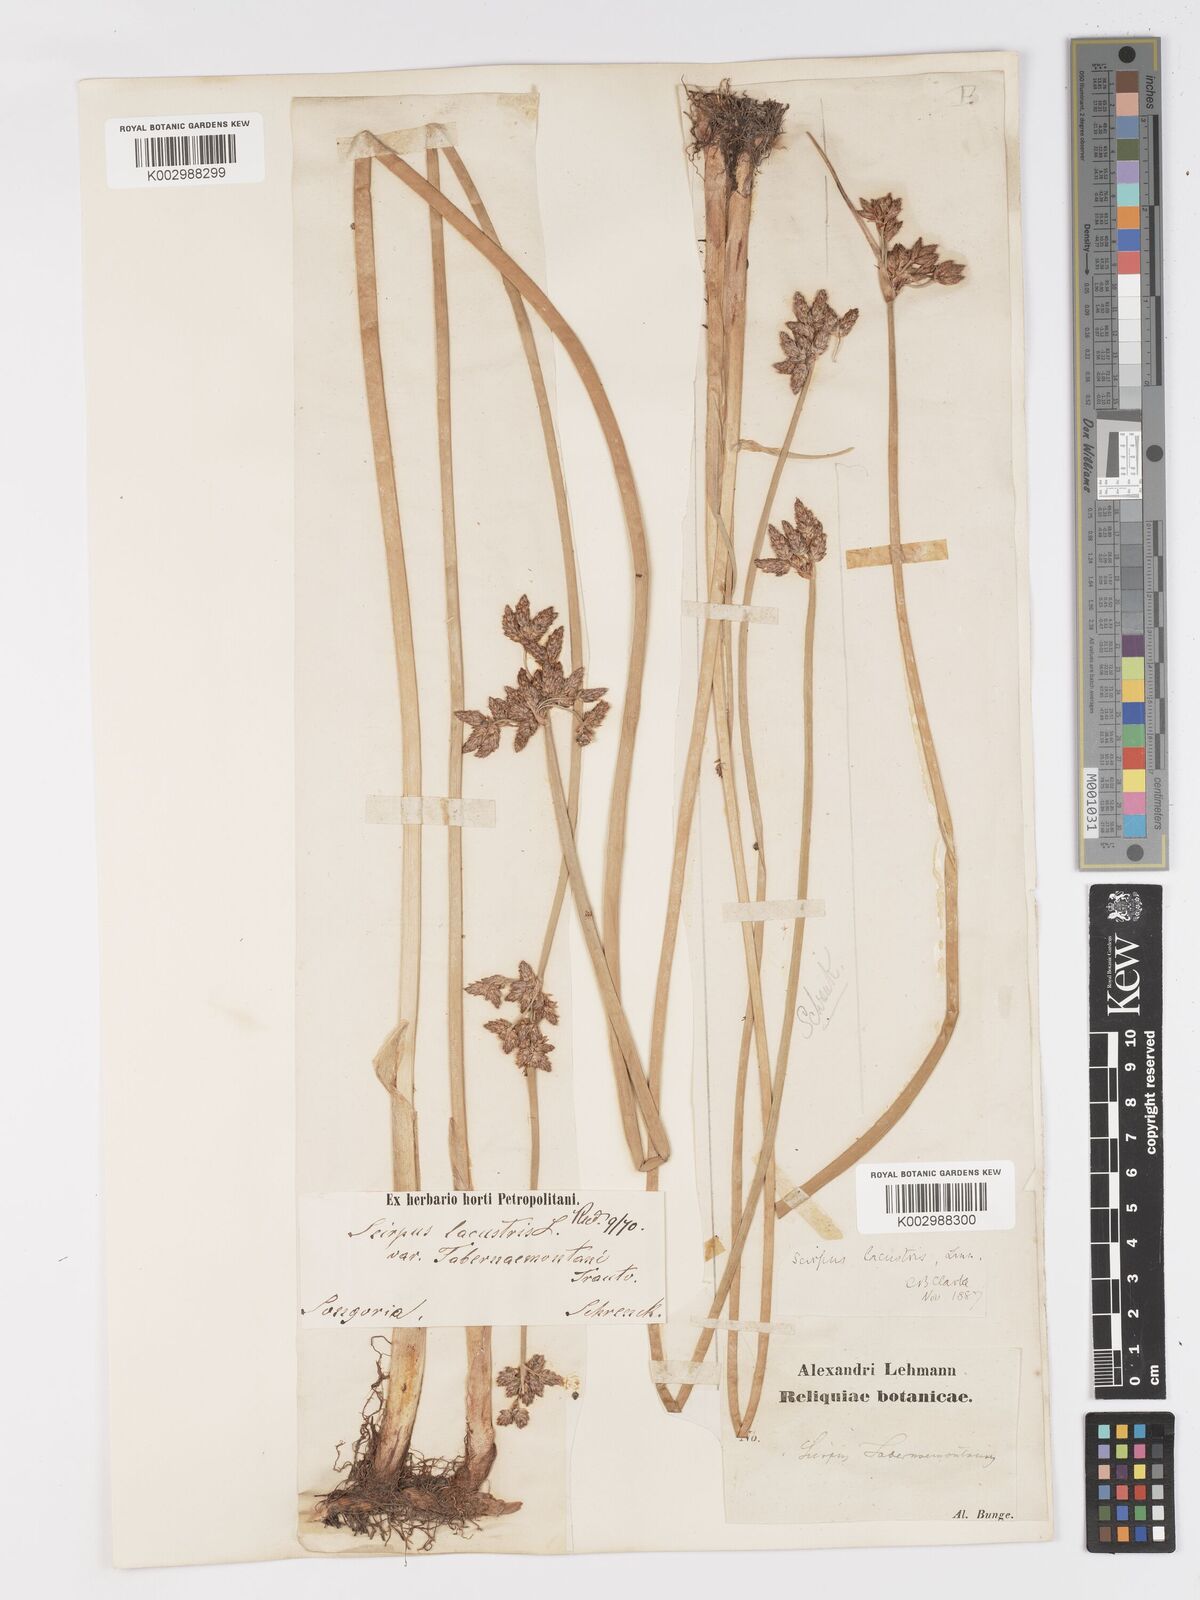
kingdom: Plantae
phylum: Tracheophyta
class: Liliopsida
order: Poales
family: Cyperaceae
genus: Schoenoplectus
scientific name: Schoenoplectus lacustris
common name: Common club-rush
